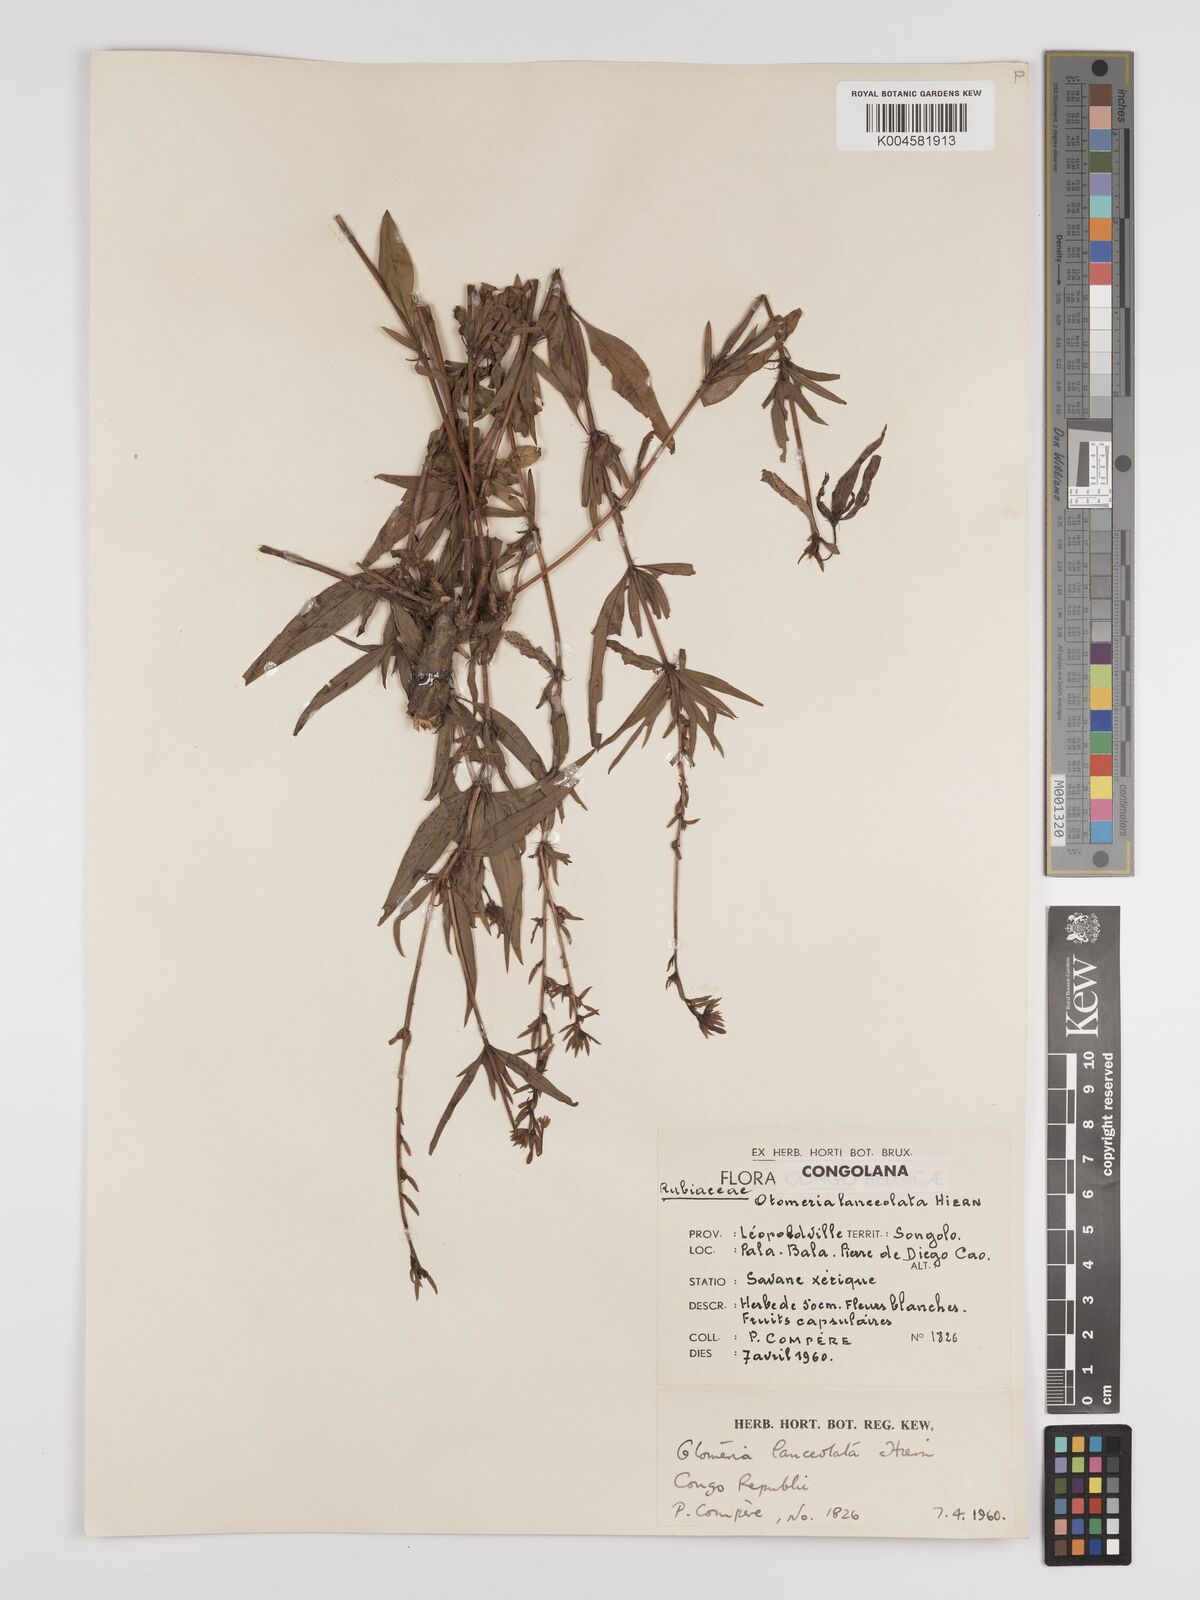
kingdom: Plantae
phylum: Tracheophyta
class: Magnoliopsida
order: Gentianales
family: Rubiaceae
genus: Otomeria
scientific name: Otomeria lanceolata
